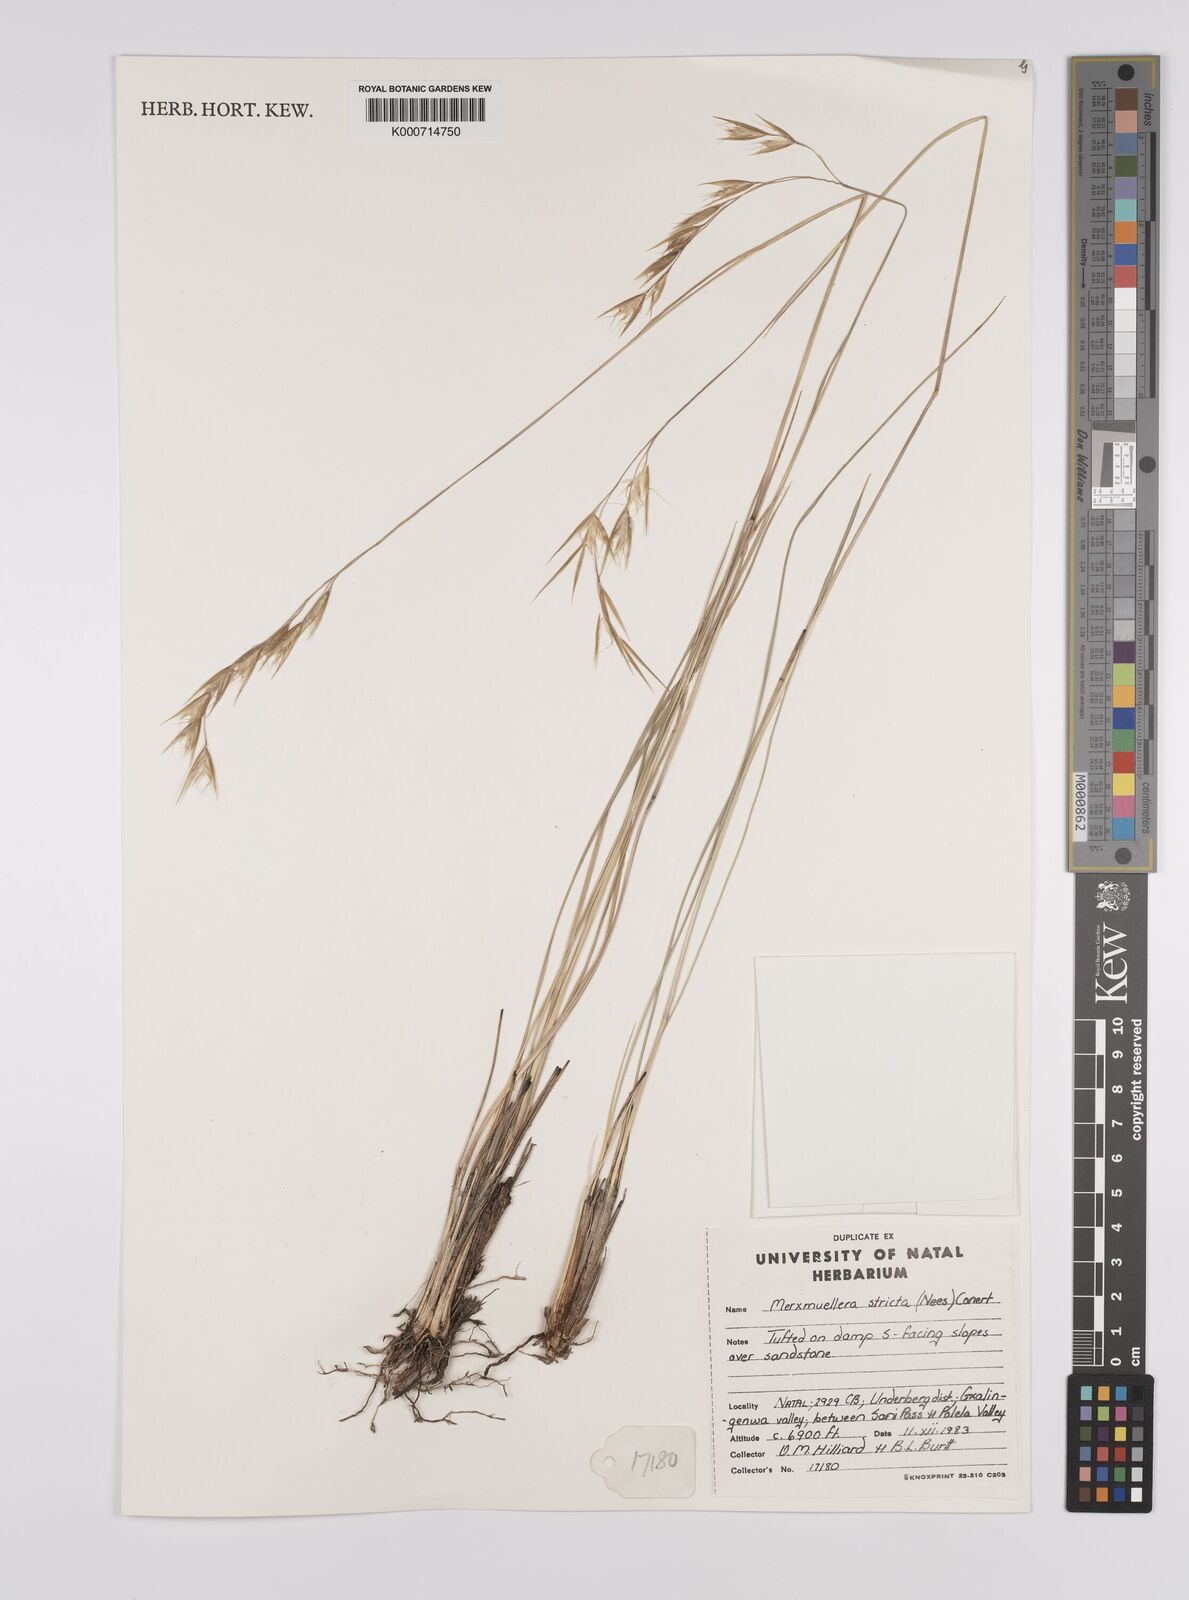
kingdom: Plantae
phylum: Tracheophyta
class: Liliopsida
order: Poales
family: Poaceae
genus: Rytidosperma
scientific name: Rytidosperma
